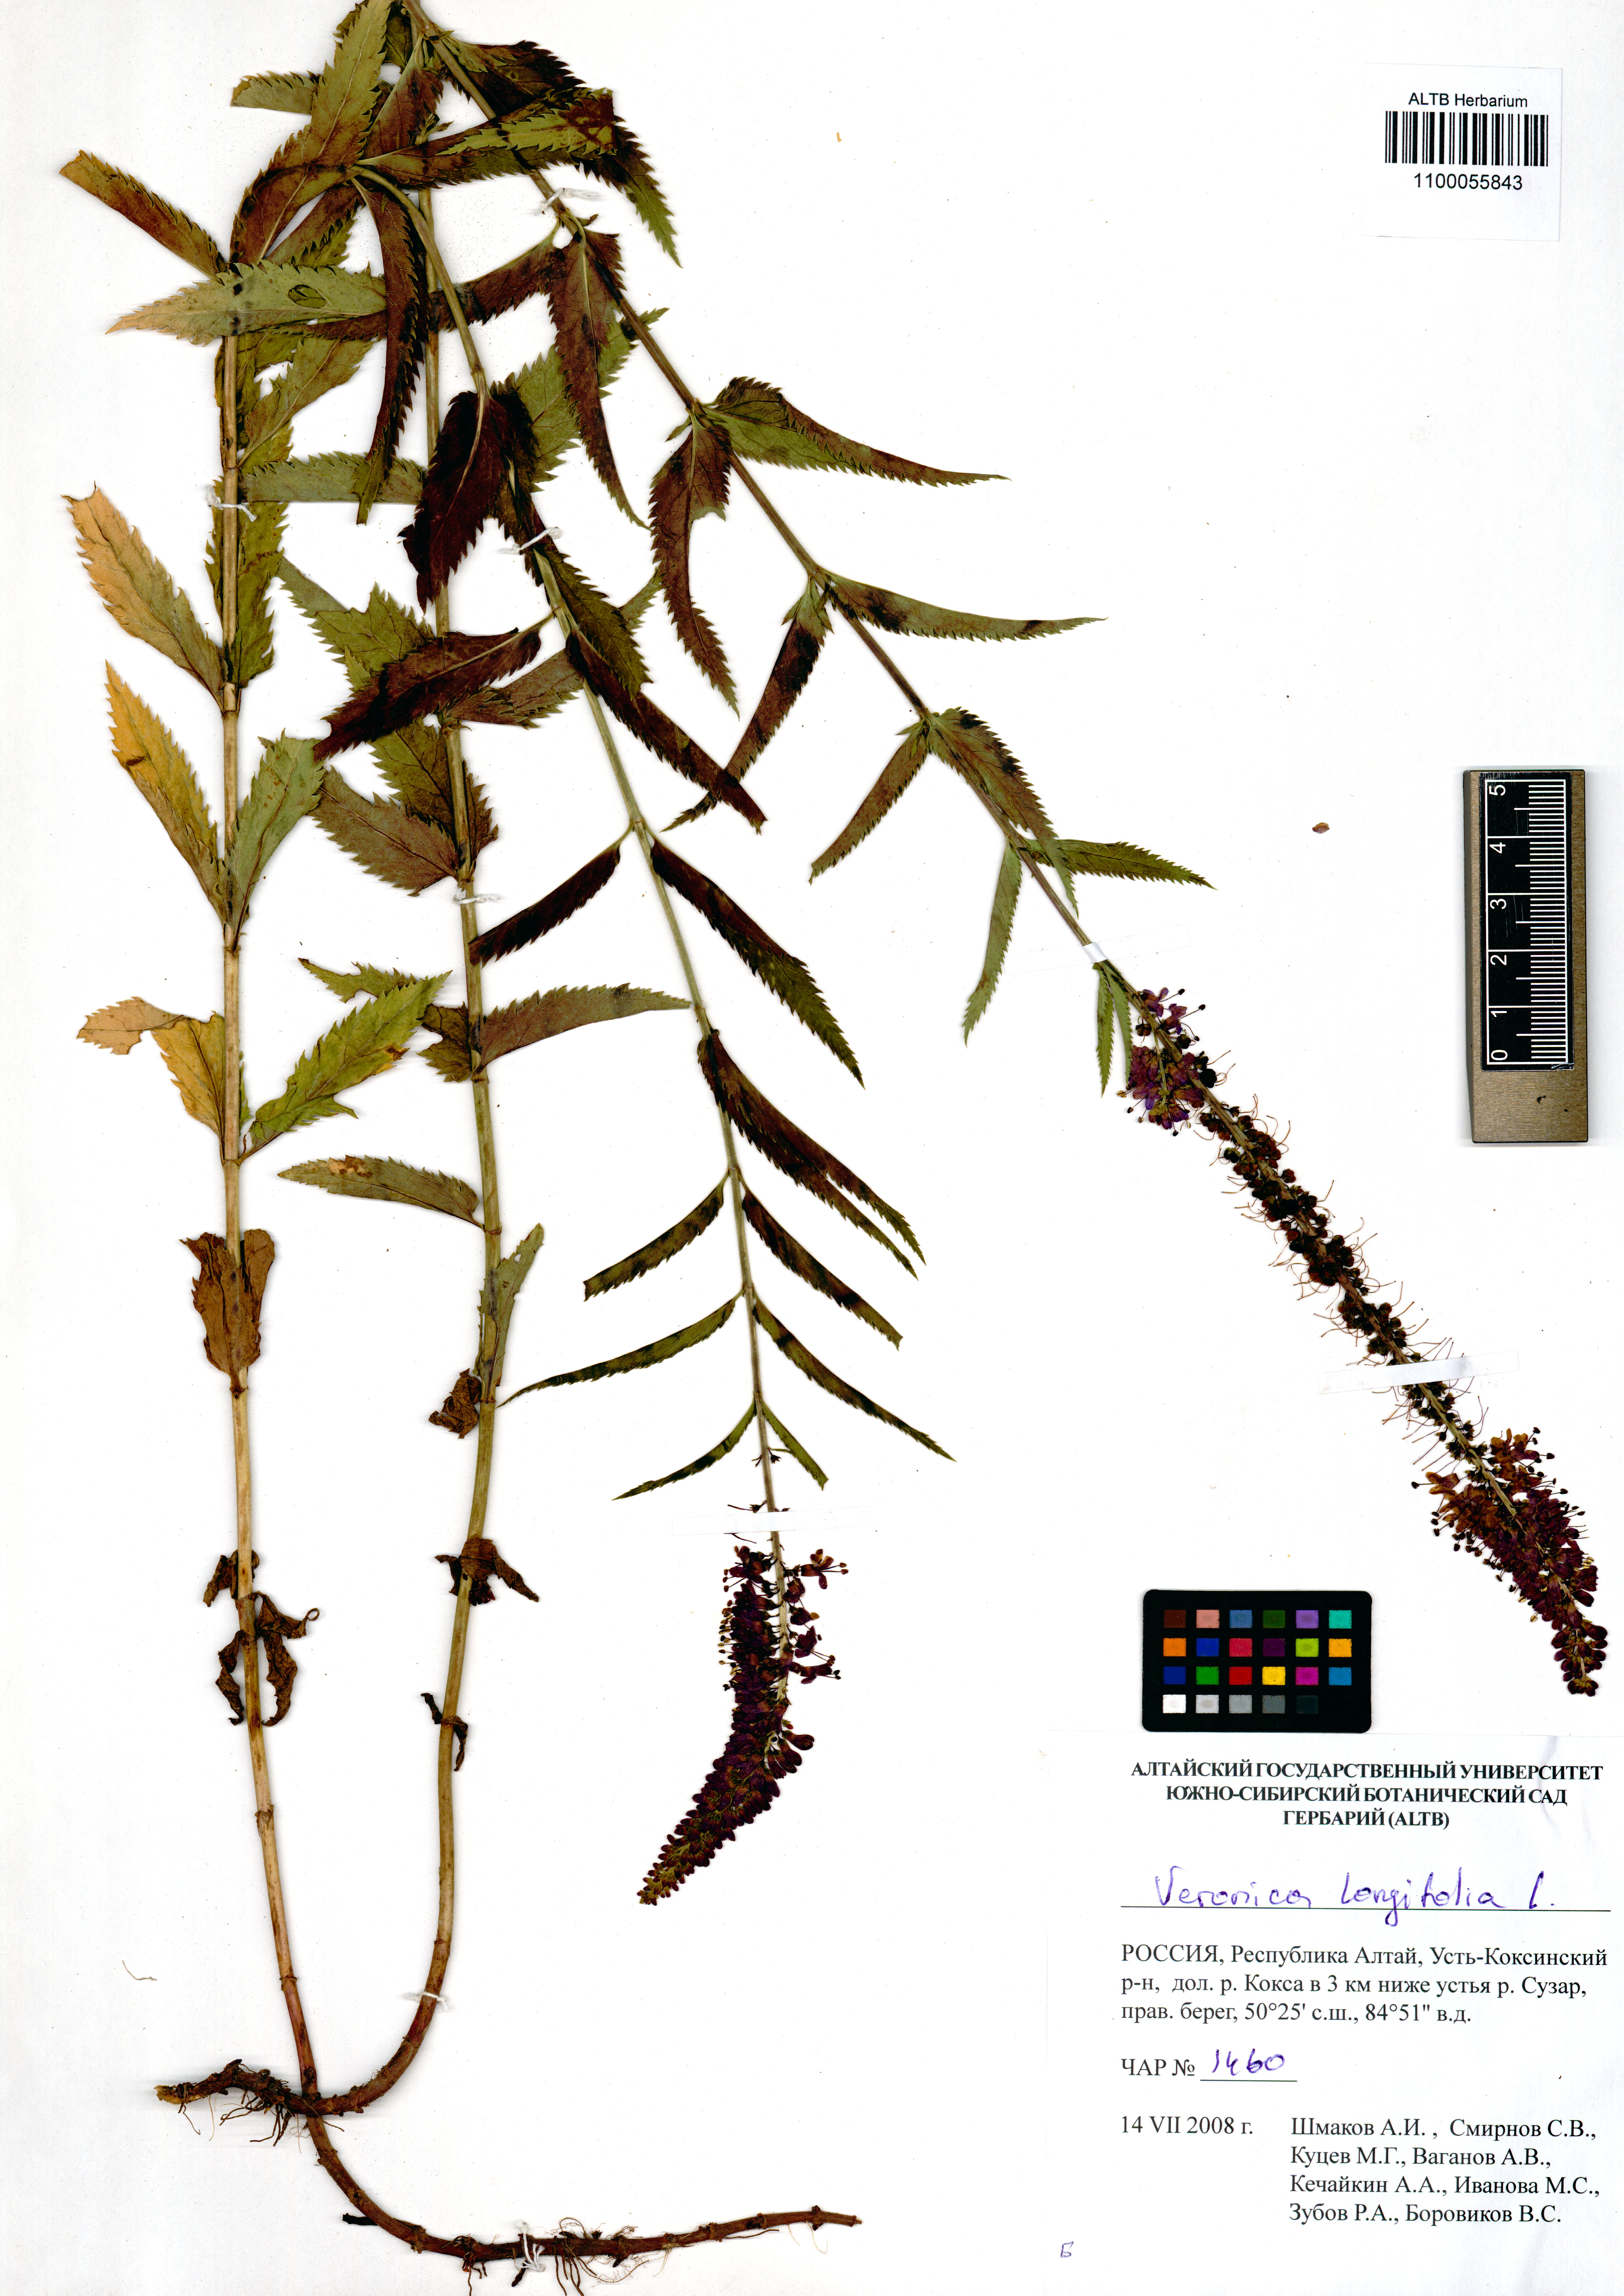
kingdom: Plantae
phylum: Tracheophyta
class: Magnoliopsida
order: Lamiales
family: Plantaginaceae
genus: Veronica
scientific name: Veronica longifolia
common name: Garden speedwell
